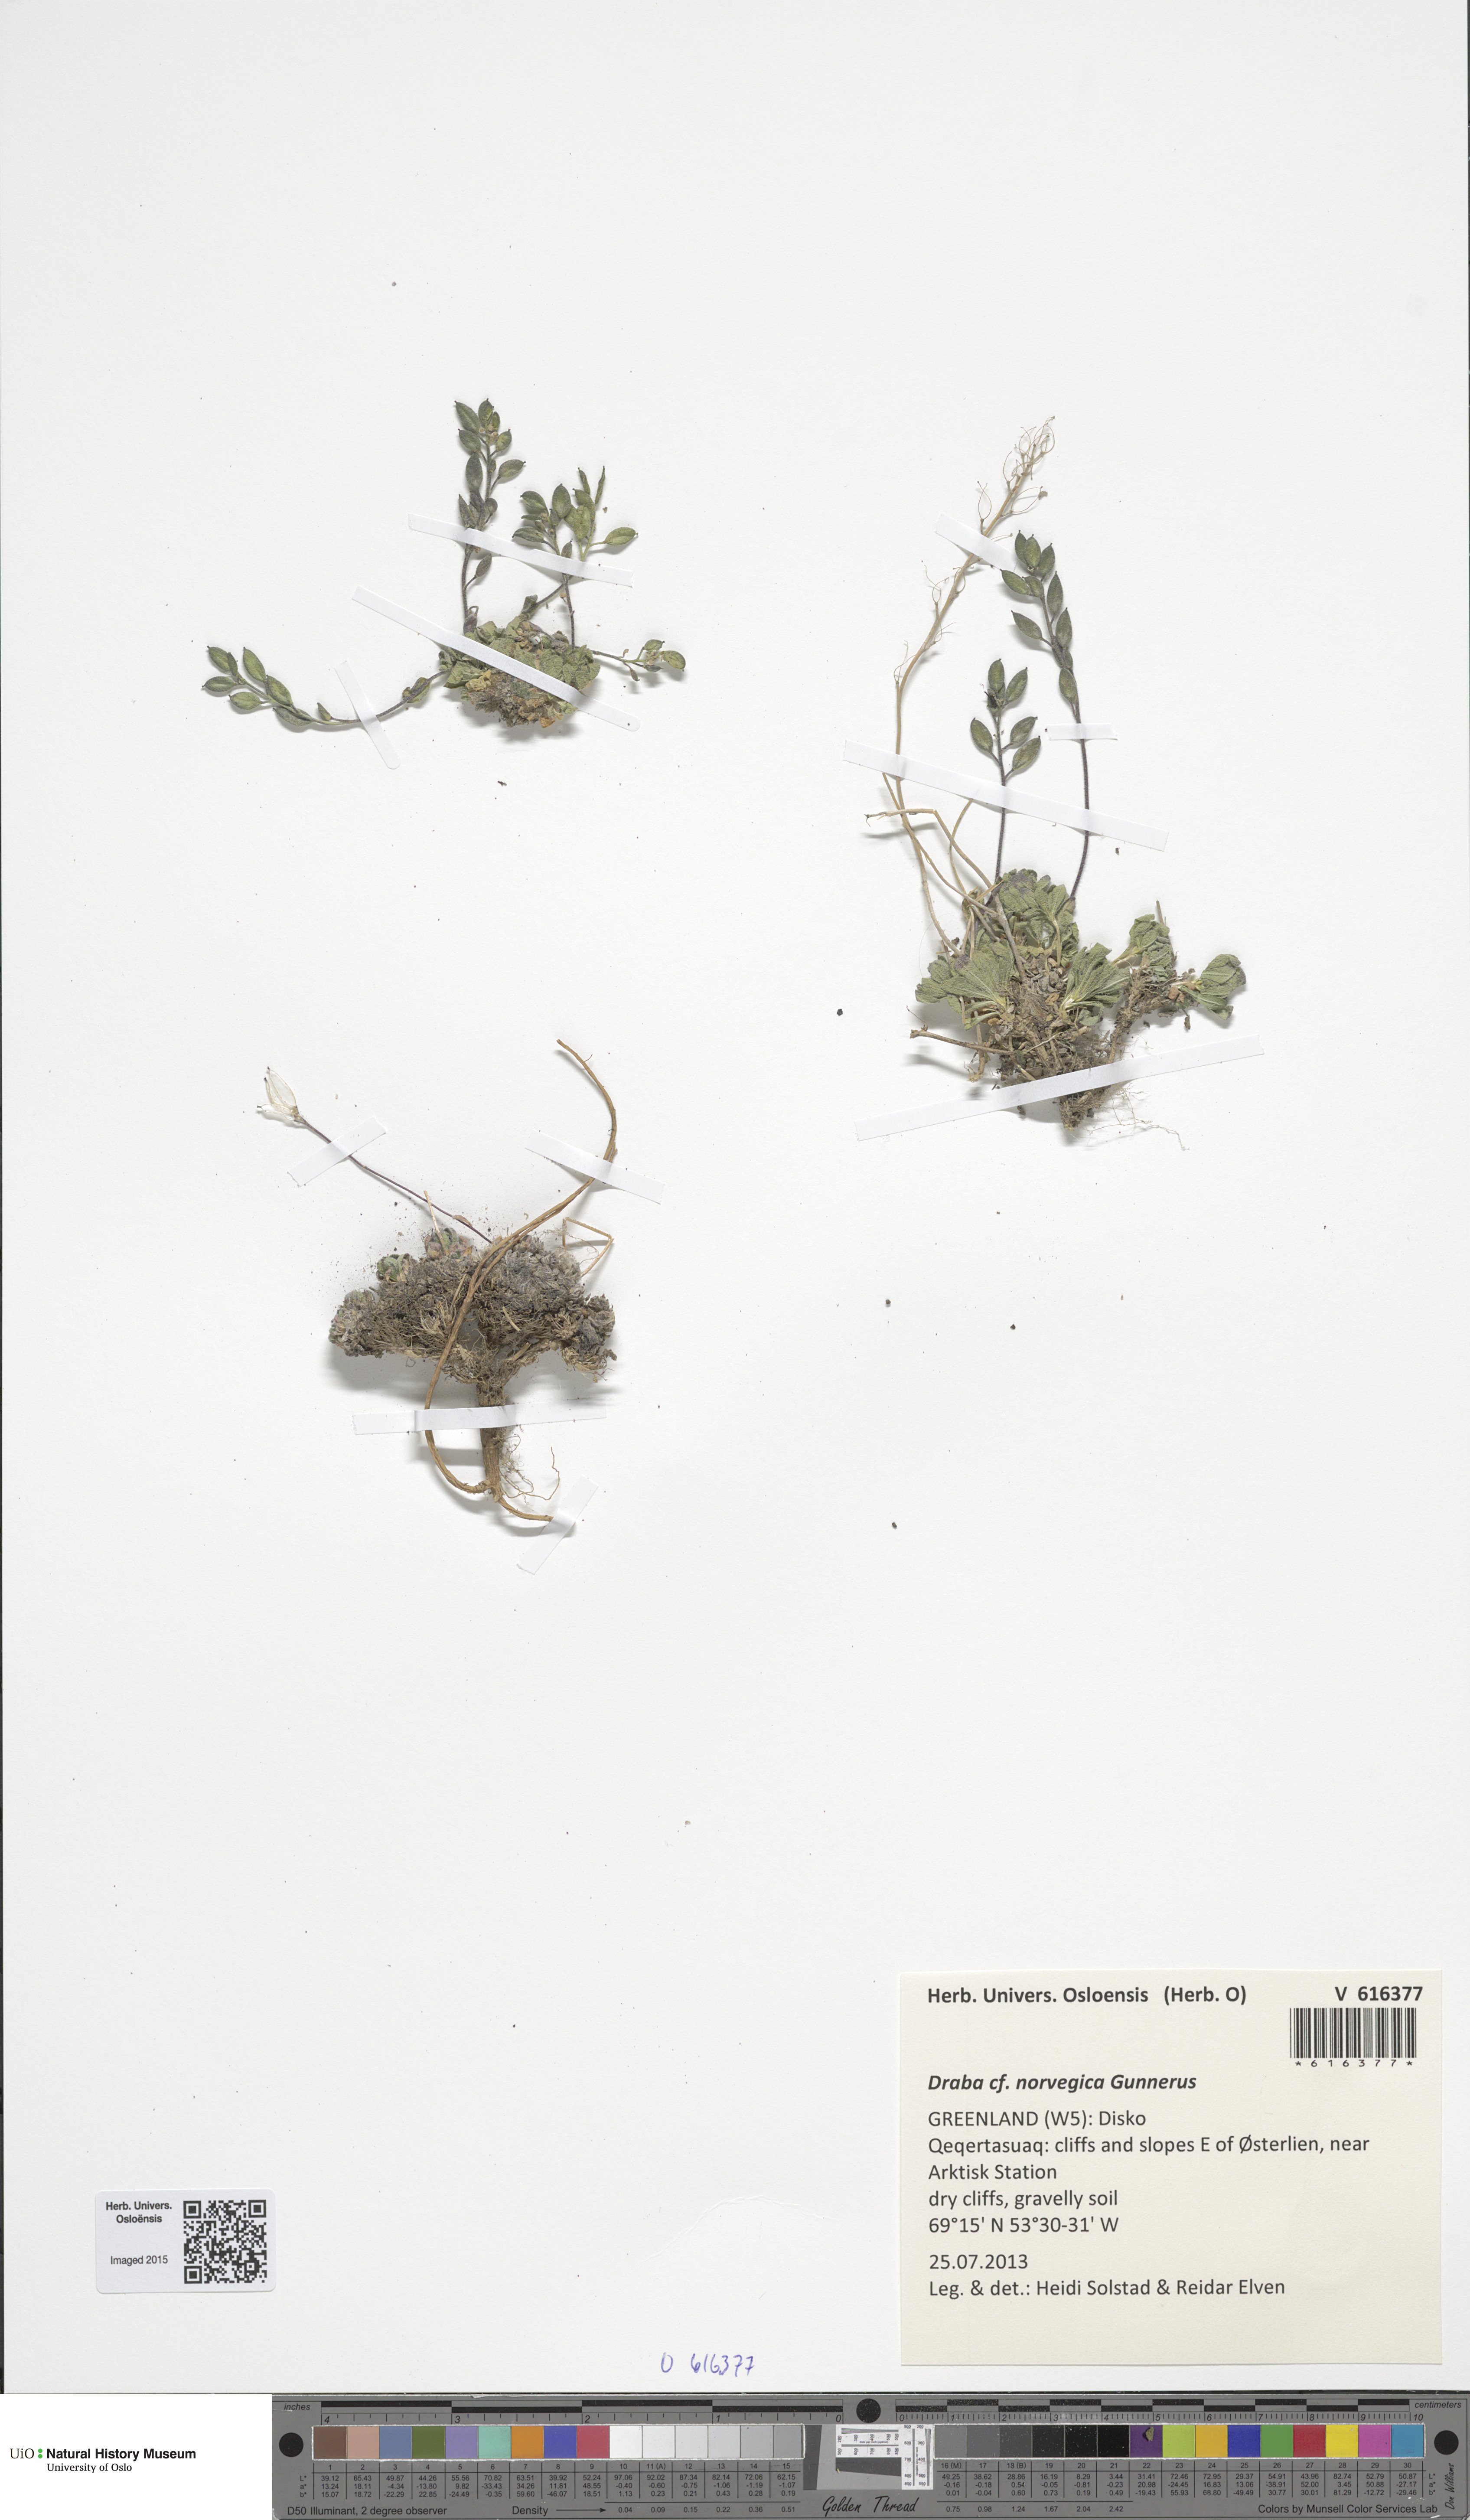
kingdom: Plantae
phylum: Tracheophyta
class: Magnoliopsida
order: Brassicales
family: Brassicaceae
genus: Draba
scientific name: Draba norvegica
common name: Rock whitlowgrass
